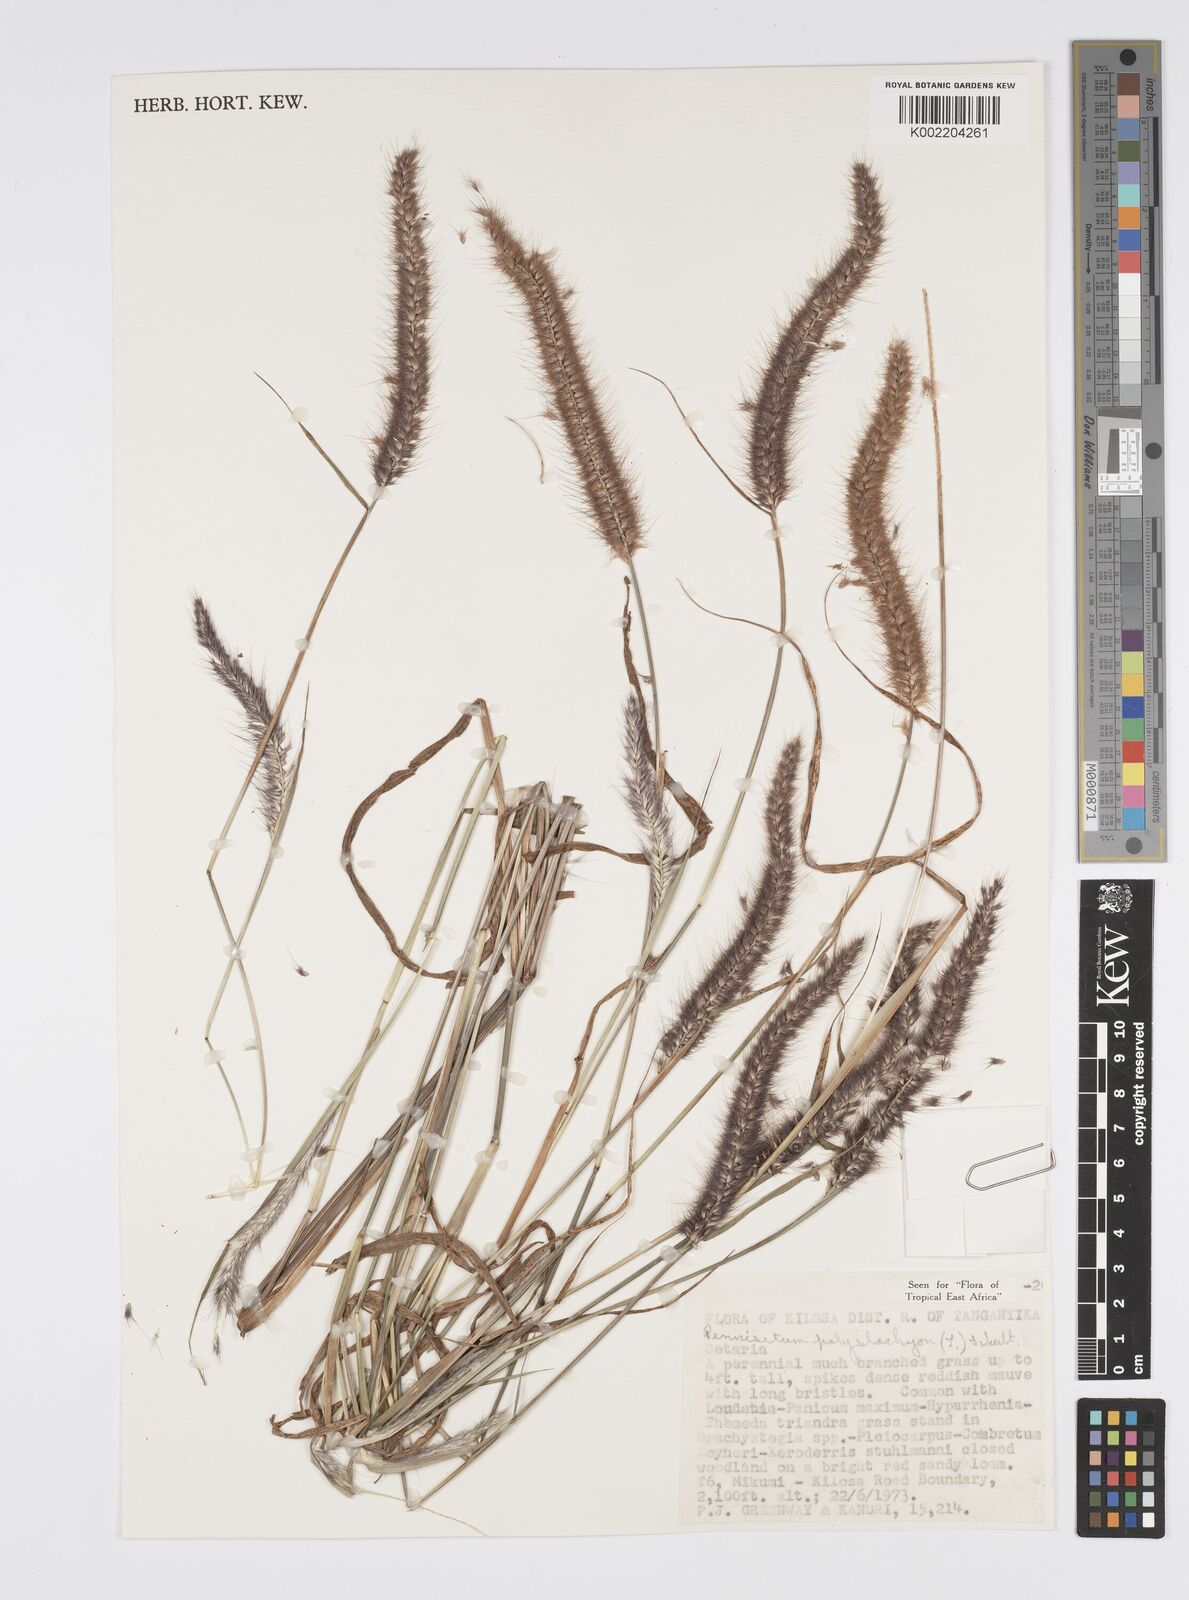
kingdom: Plantae
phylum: Tracheophyta
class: Liliopsida
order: Poales
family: Poaceae
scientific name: Poaceae
